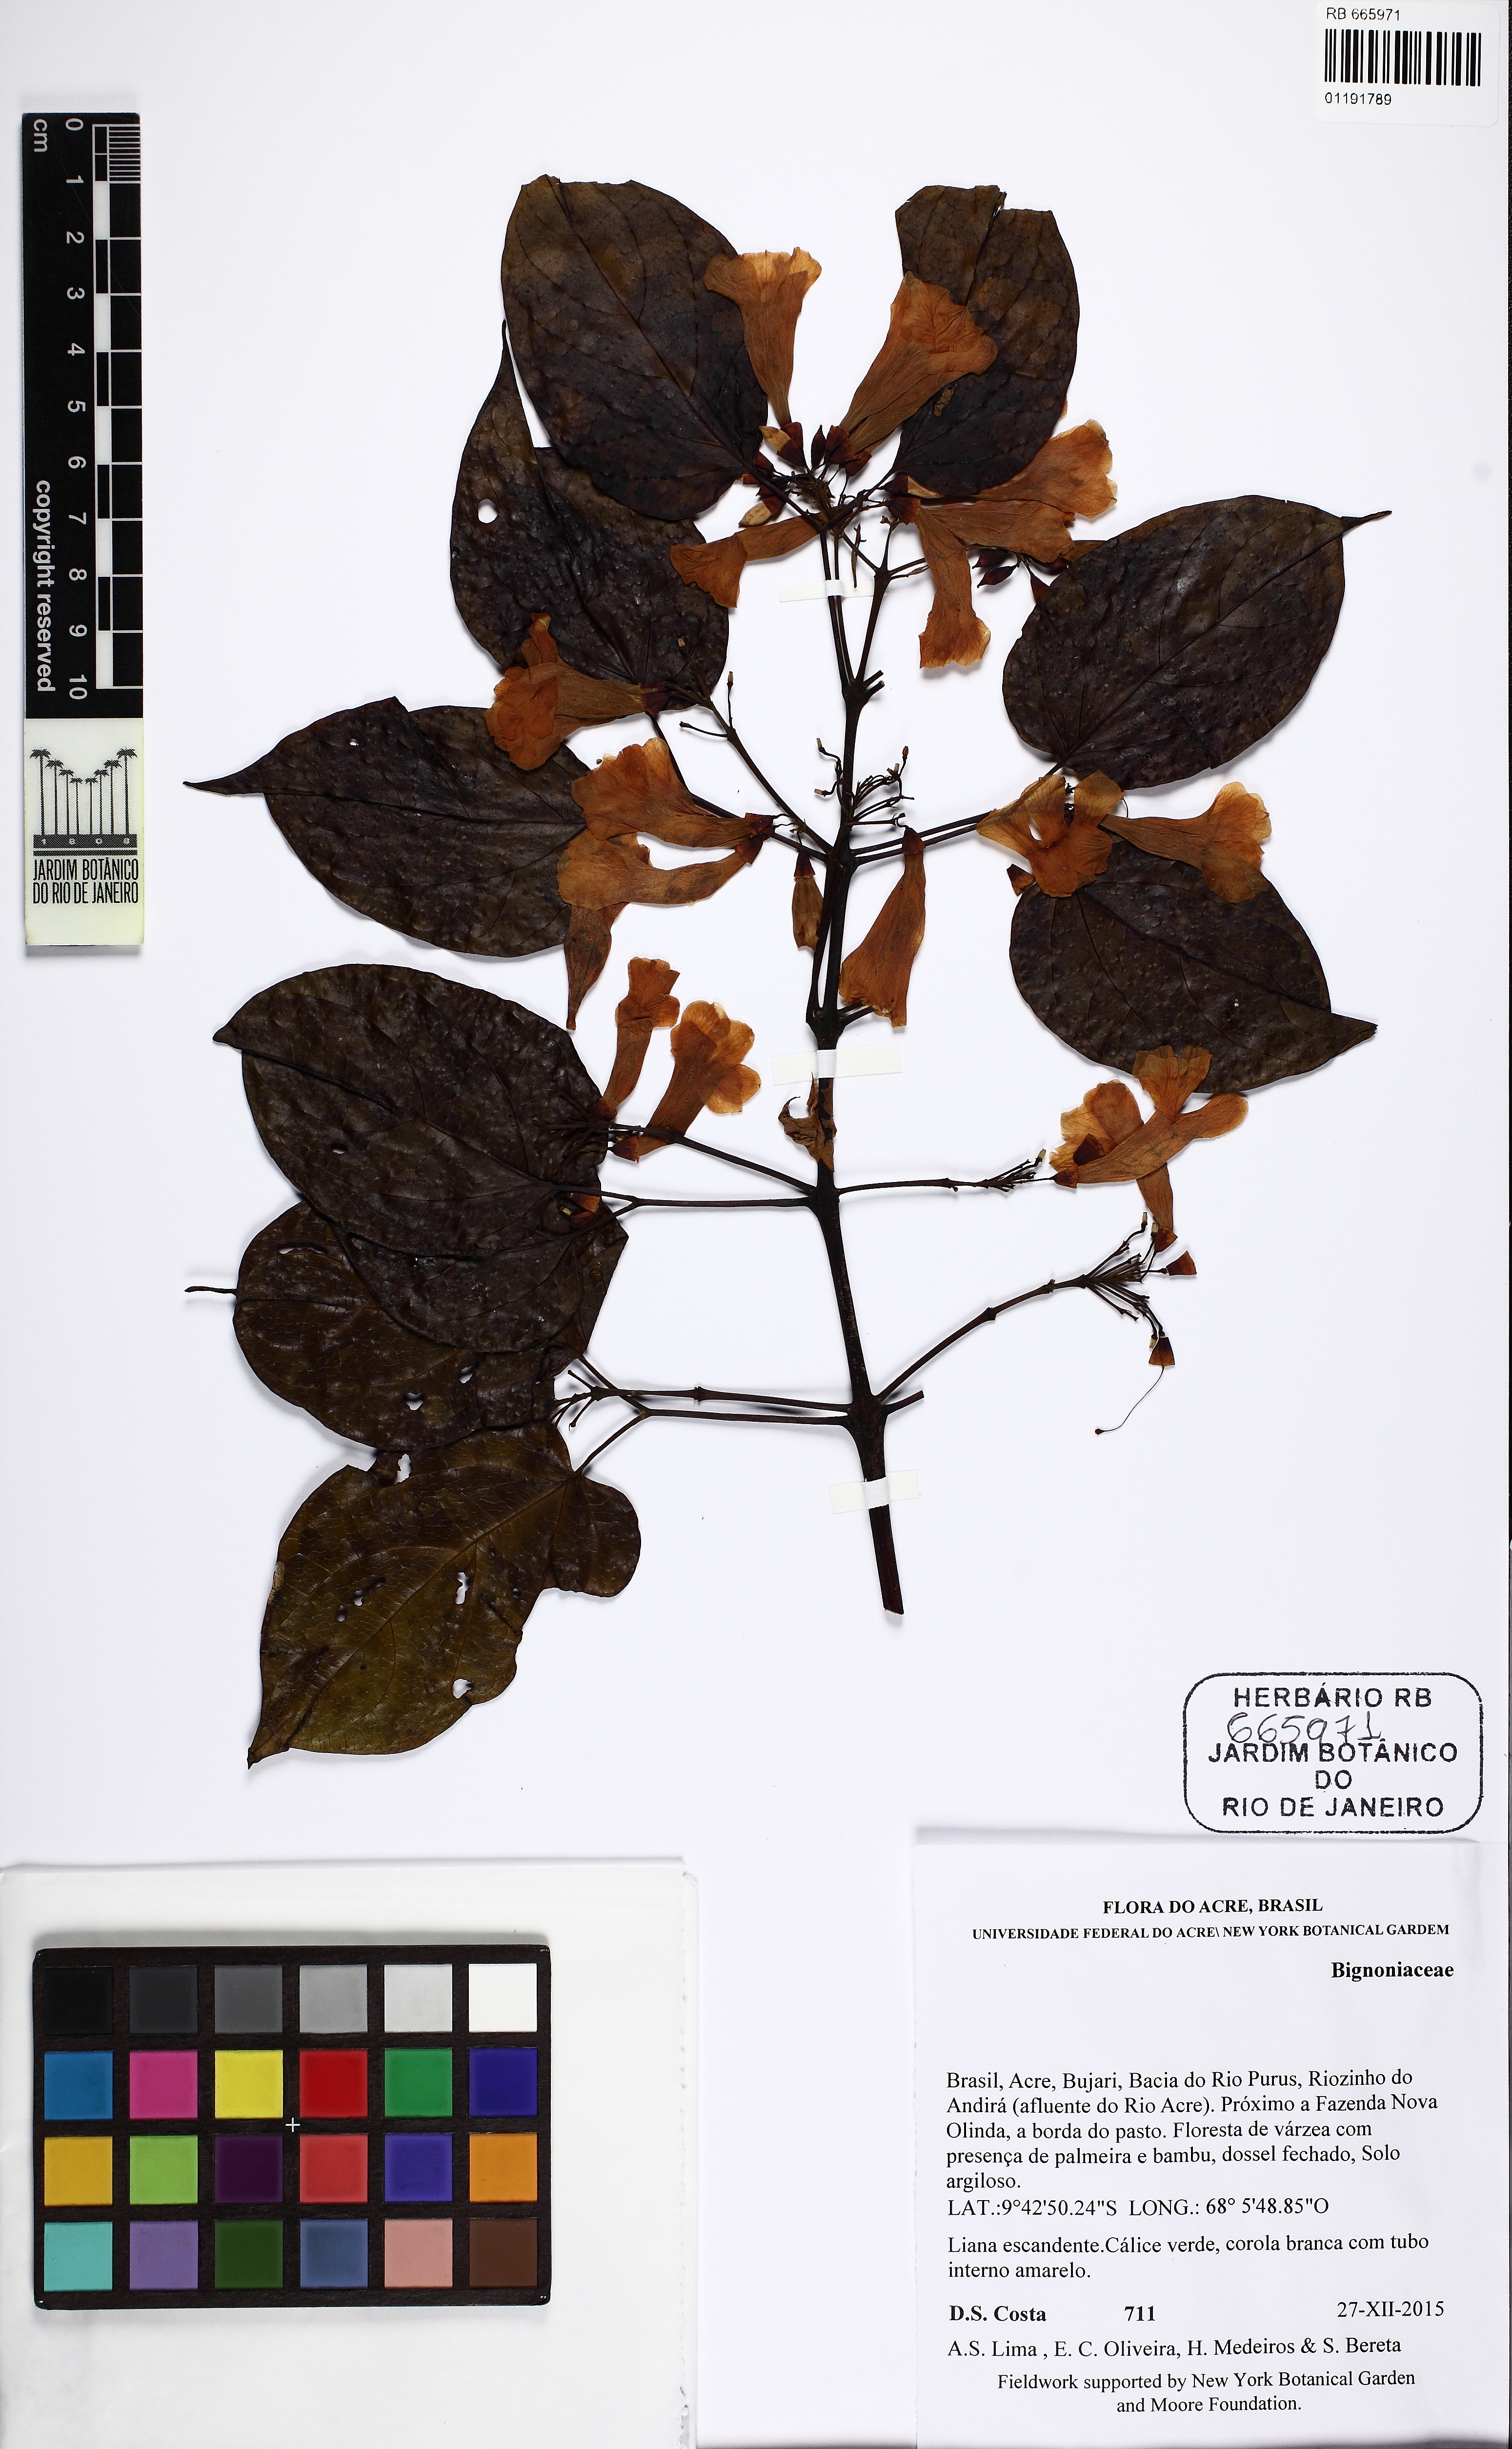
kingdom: Plantae
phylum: Tracheophyta
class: Magnoliopsida
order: Lamiales
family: Bignoniaceae
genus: Lundia
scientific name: Lundia laevis
